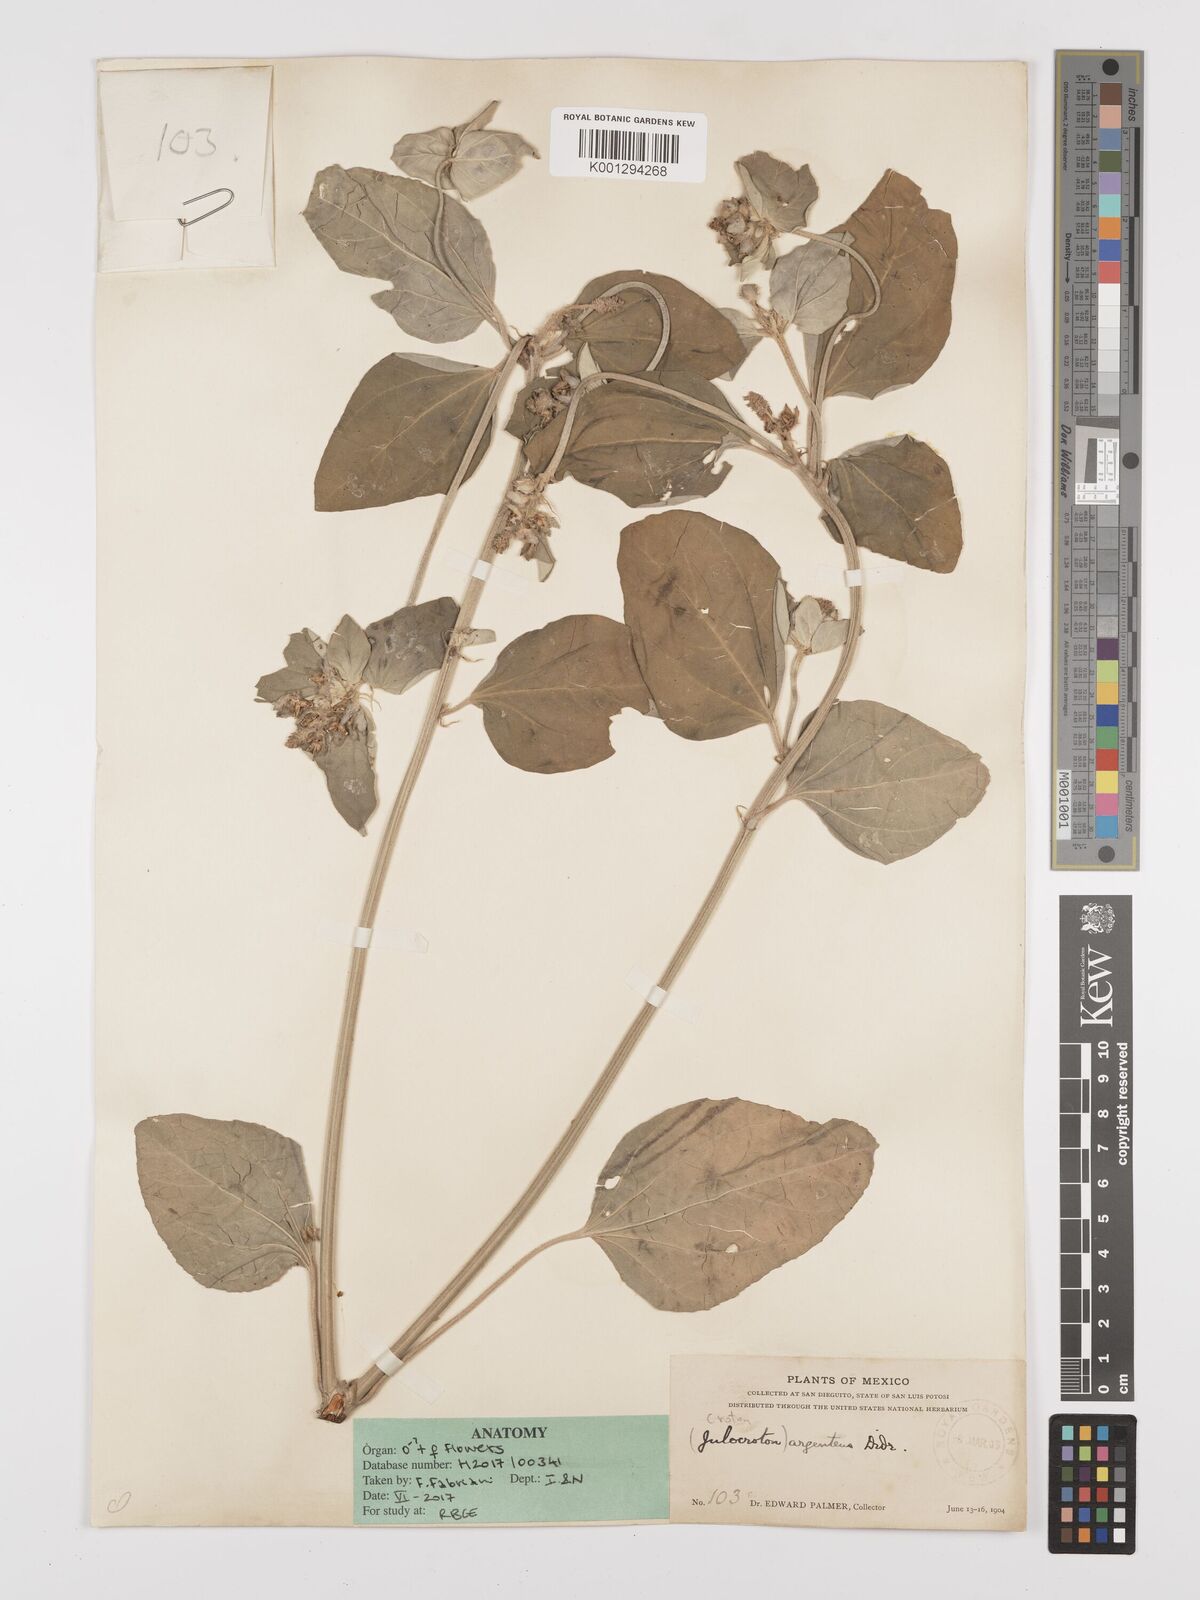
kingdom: Plantae
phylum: Tracheophyta
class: Magnoliopsida
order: Malpighiales
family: Euphorbiaceae
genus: Croton
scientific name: Croton argenteus
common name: Silver july croton
